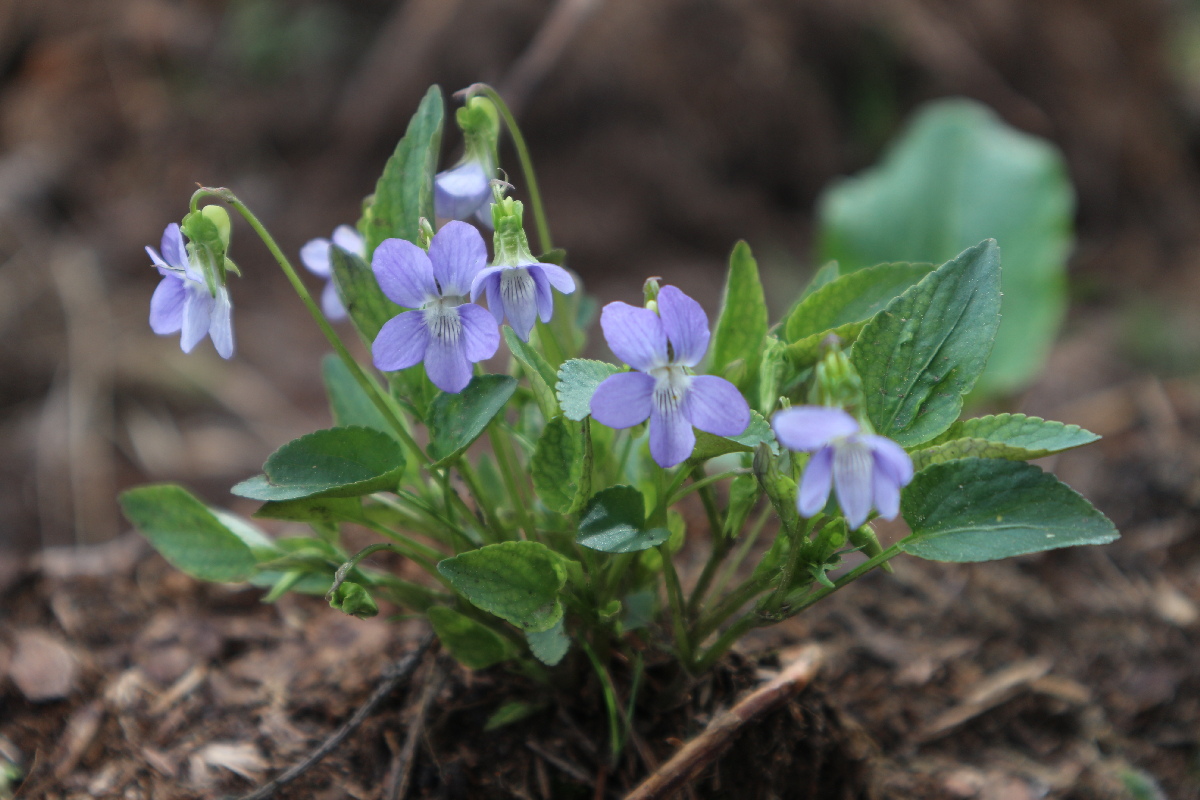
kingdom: Plantae
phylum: Tracheophyta
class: Magnoliopsida
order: Malpighiales
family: Violaceae
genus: Viola
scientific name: Viola hirta
